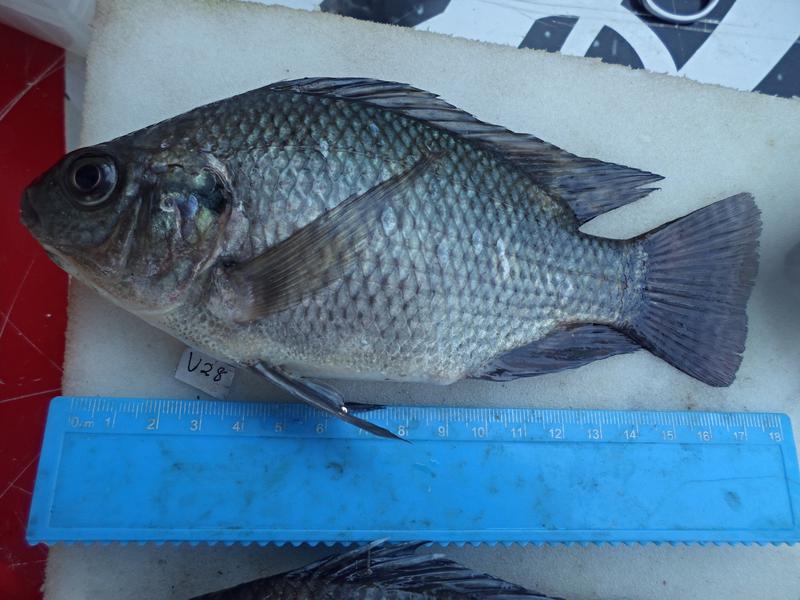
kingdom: Animalia
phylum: Chordata
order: Perciformes
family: Cichlidae
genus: Oreochromis
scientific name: Oreochromis niloticus
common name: Nile tilapia
